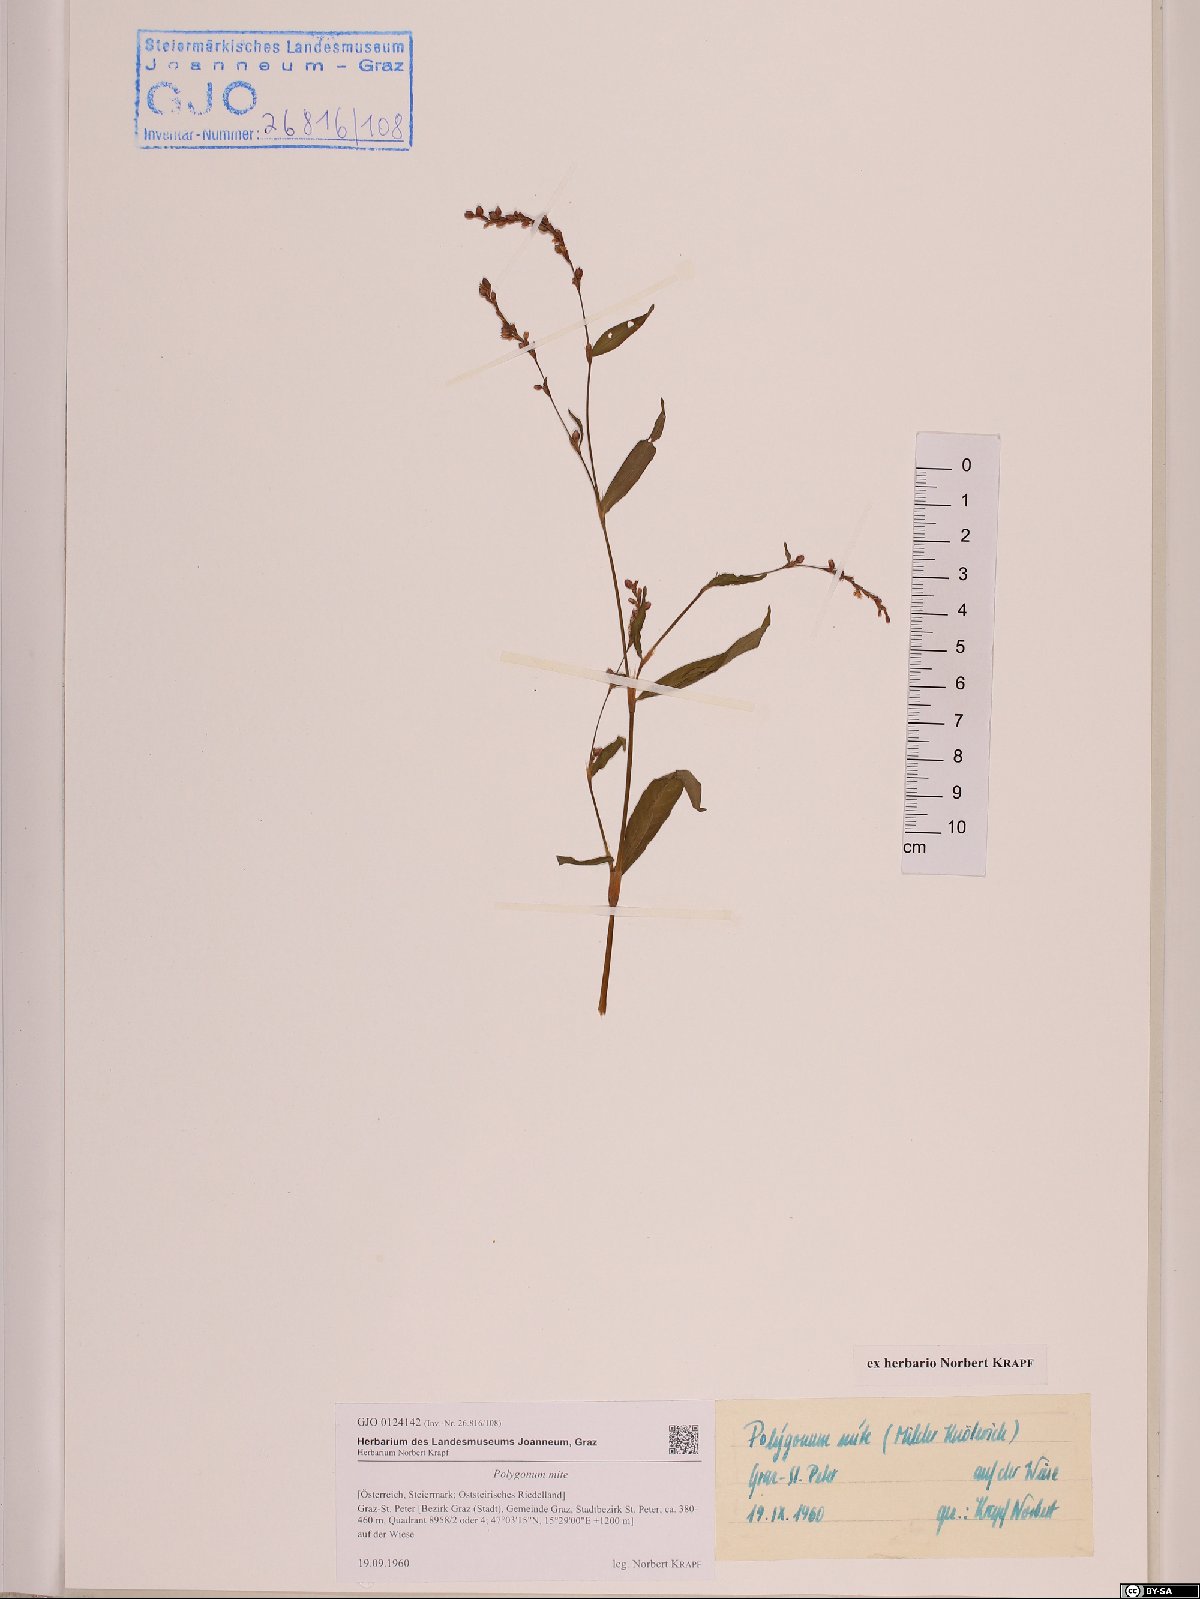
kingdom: Plantae
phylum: Tracheophyta
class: Magnoliopsida
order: Caryophyllales
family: Polygonaceae
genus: Persicaria
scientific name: Persicaria mitis
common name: Tasteless water-pepper
